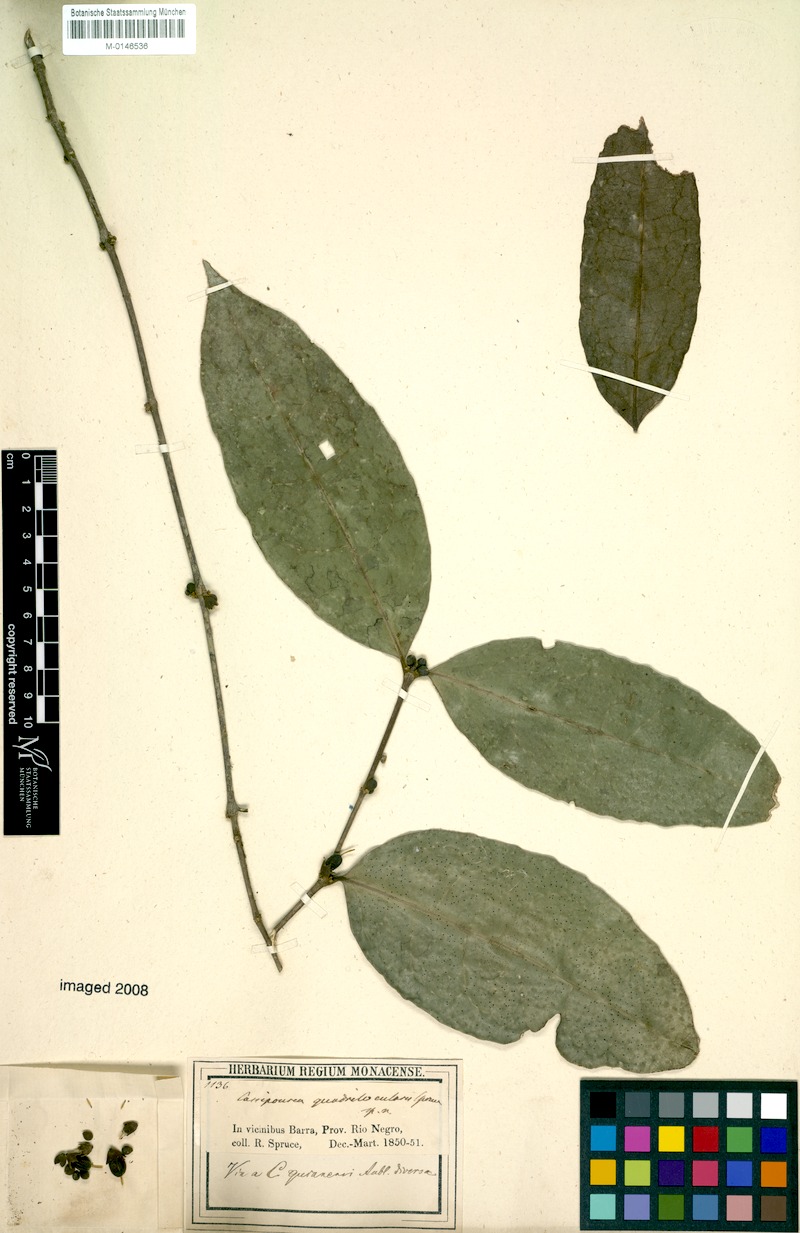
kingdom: Plantae
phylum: Tracheophyta
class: Magnoliopsida
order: Malpighiales
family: Rhizophoraceae
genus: Cassipourea
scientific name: Cassipourea guianensis
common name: Bastard waterwood
